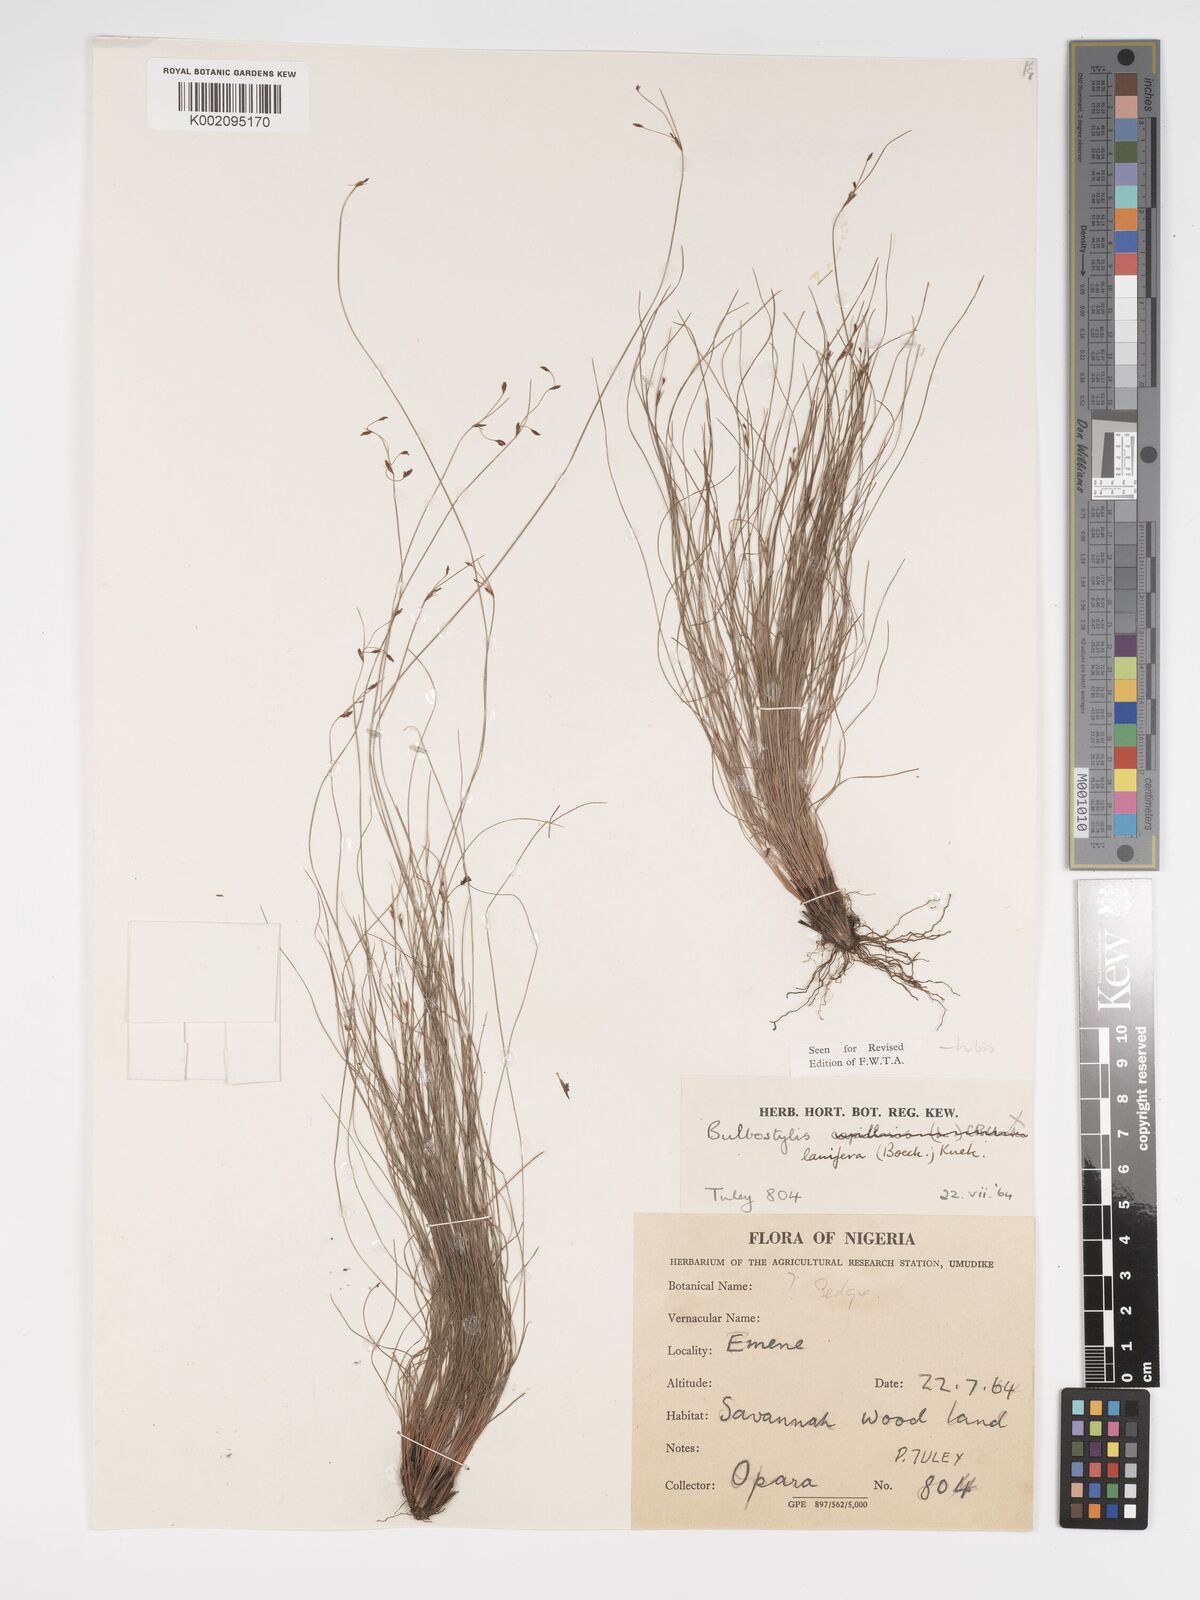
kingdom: Plantae
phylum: Tracheophyta
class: Liliopsida
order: Poales
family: Cyperaceae
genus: Bulbostylis
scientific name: Bulbostylis lanifera
